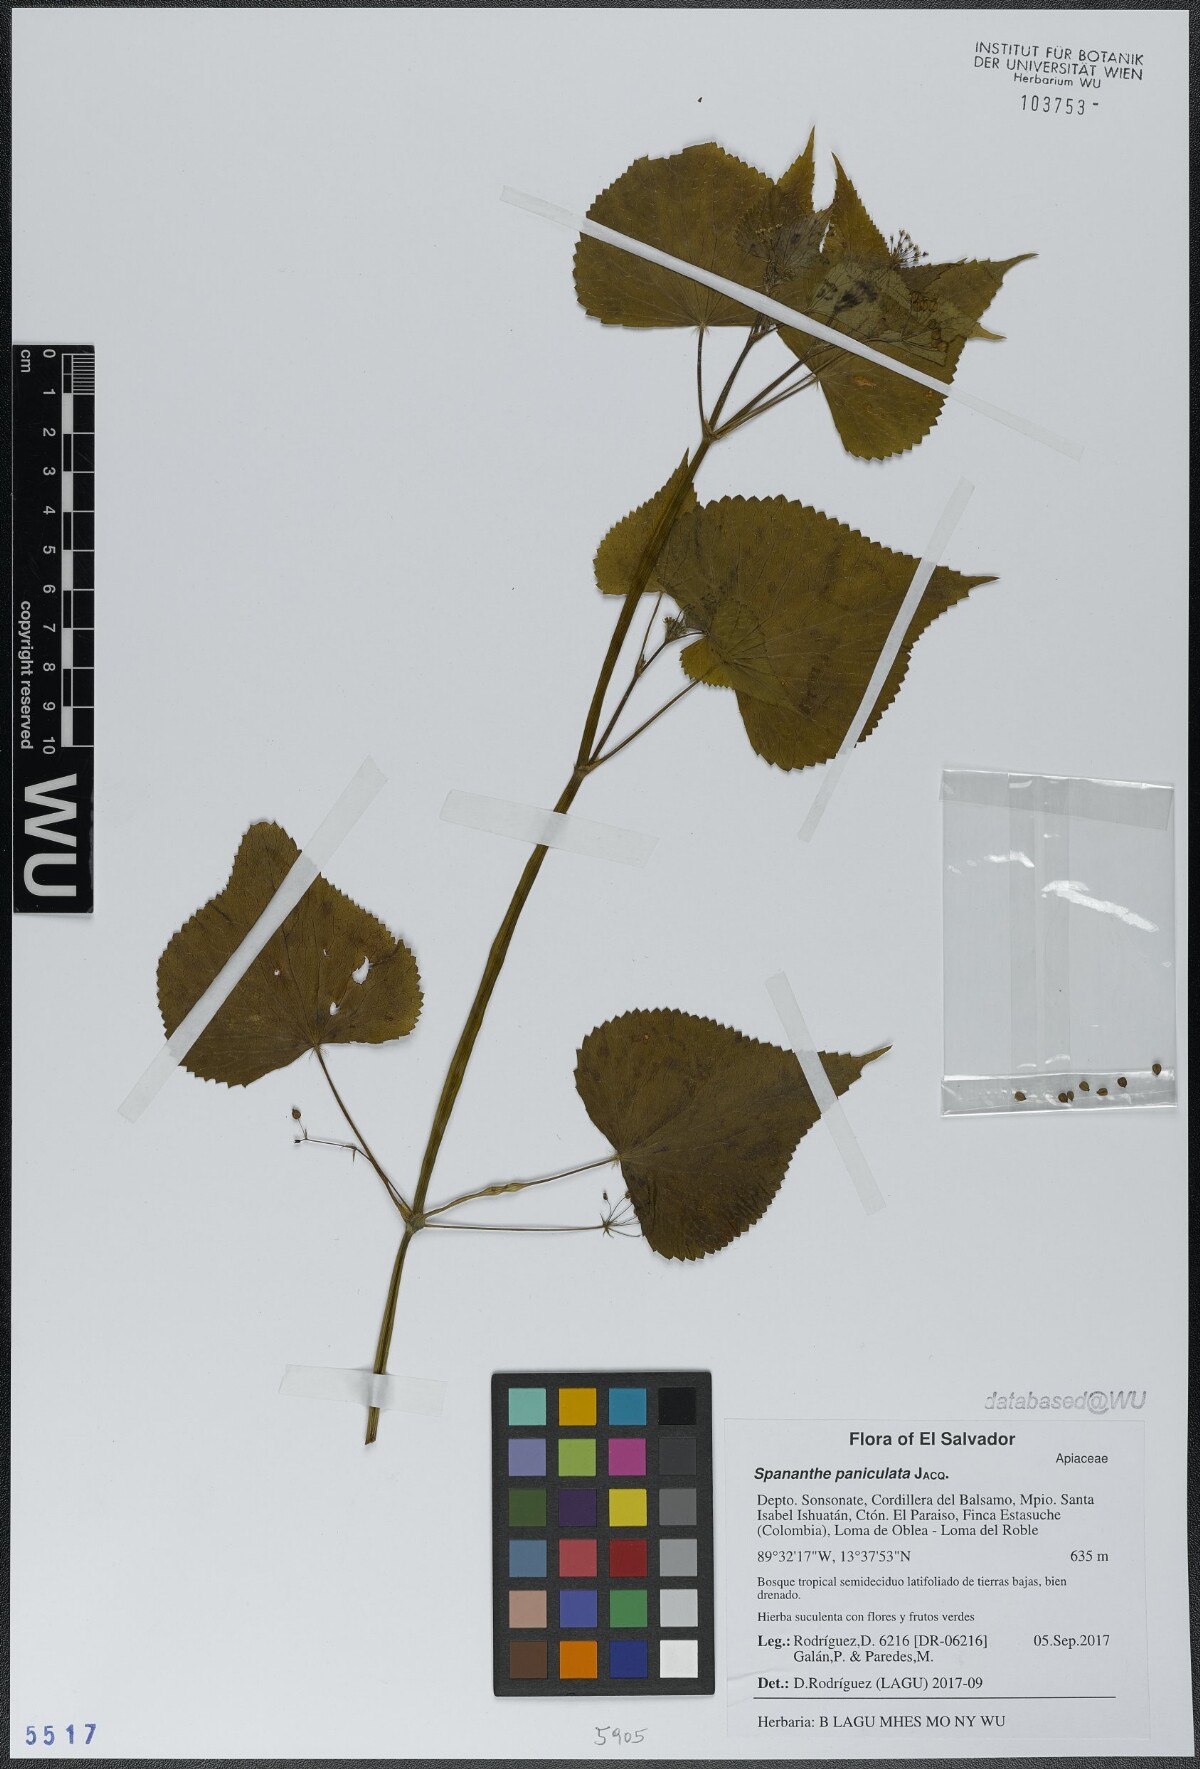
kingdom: Plantae
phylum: Tracheophyta
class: Magnoliopsida
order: Apiales
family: Apiaceae
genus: Spananthe
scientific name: Spananthe paniculata
